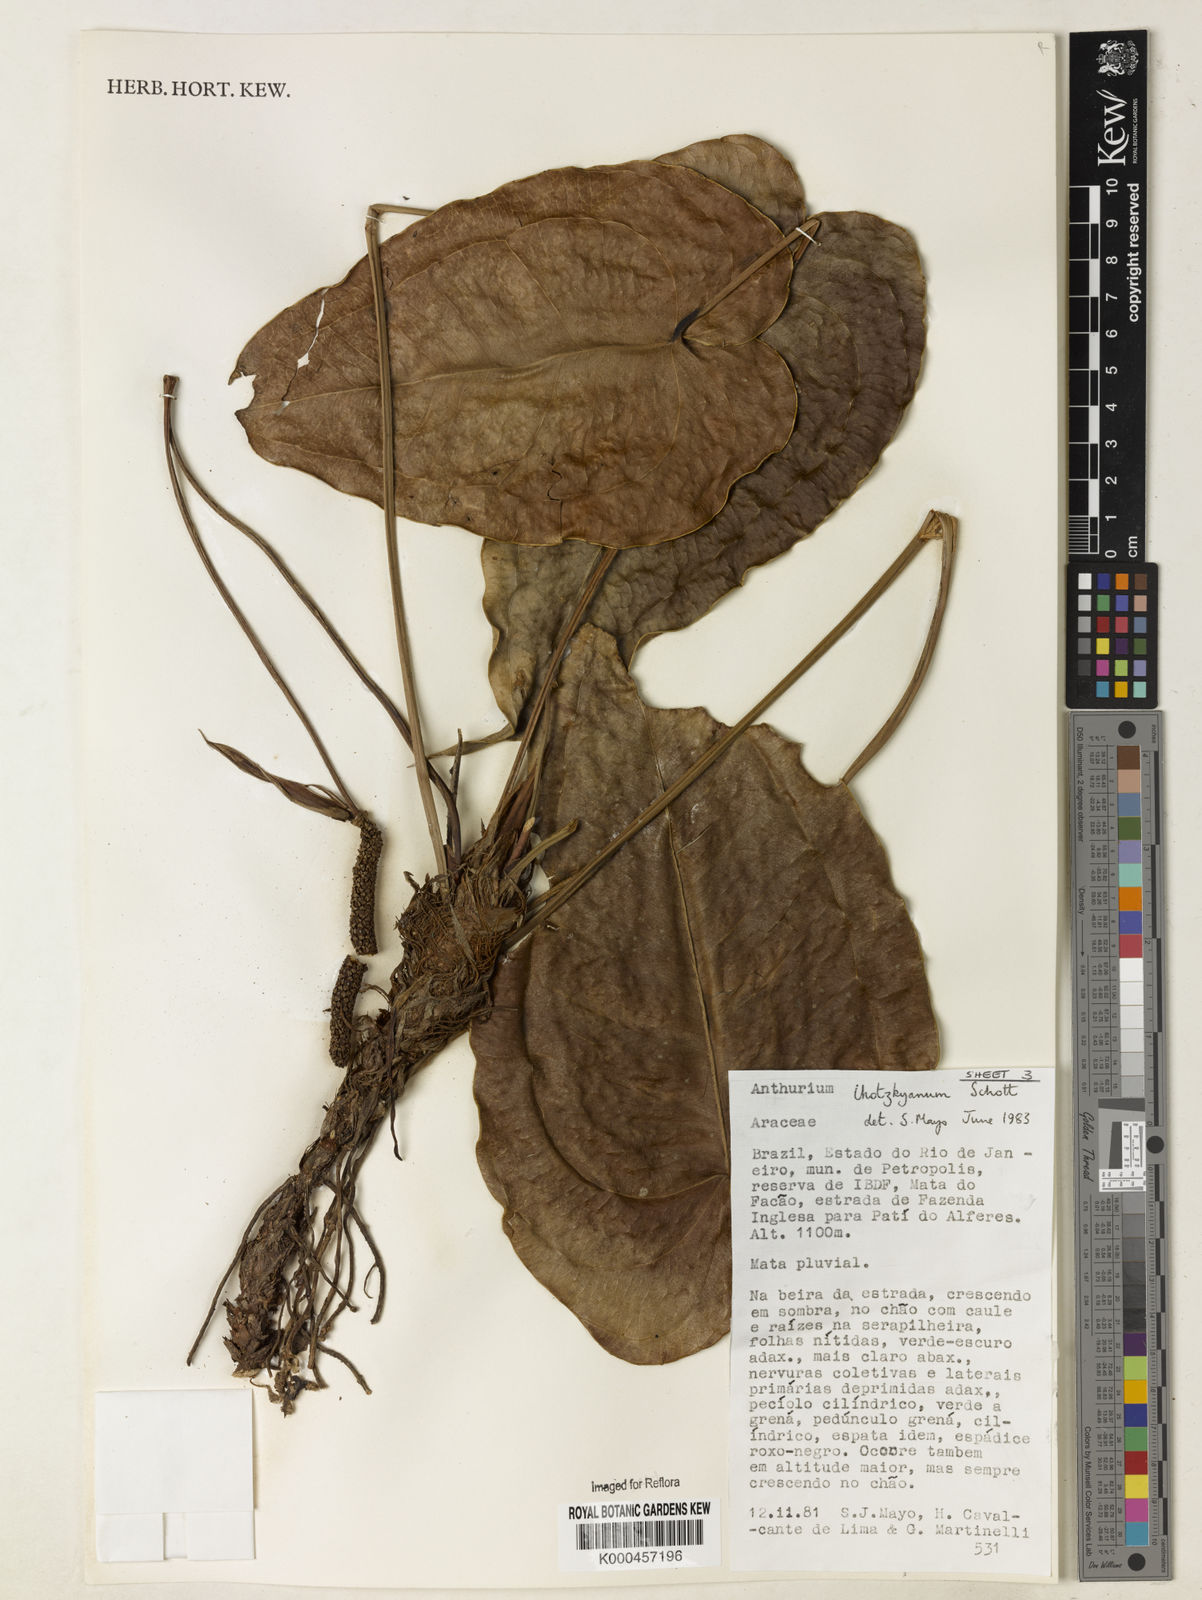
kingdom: Plantae
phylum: Tracheophyta
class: Liliopsida
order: Alismatales
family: Araceae
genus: Anthurium
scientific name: Anthurium augustinum
